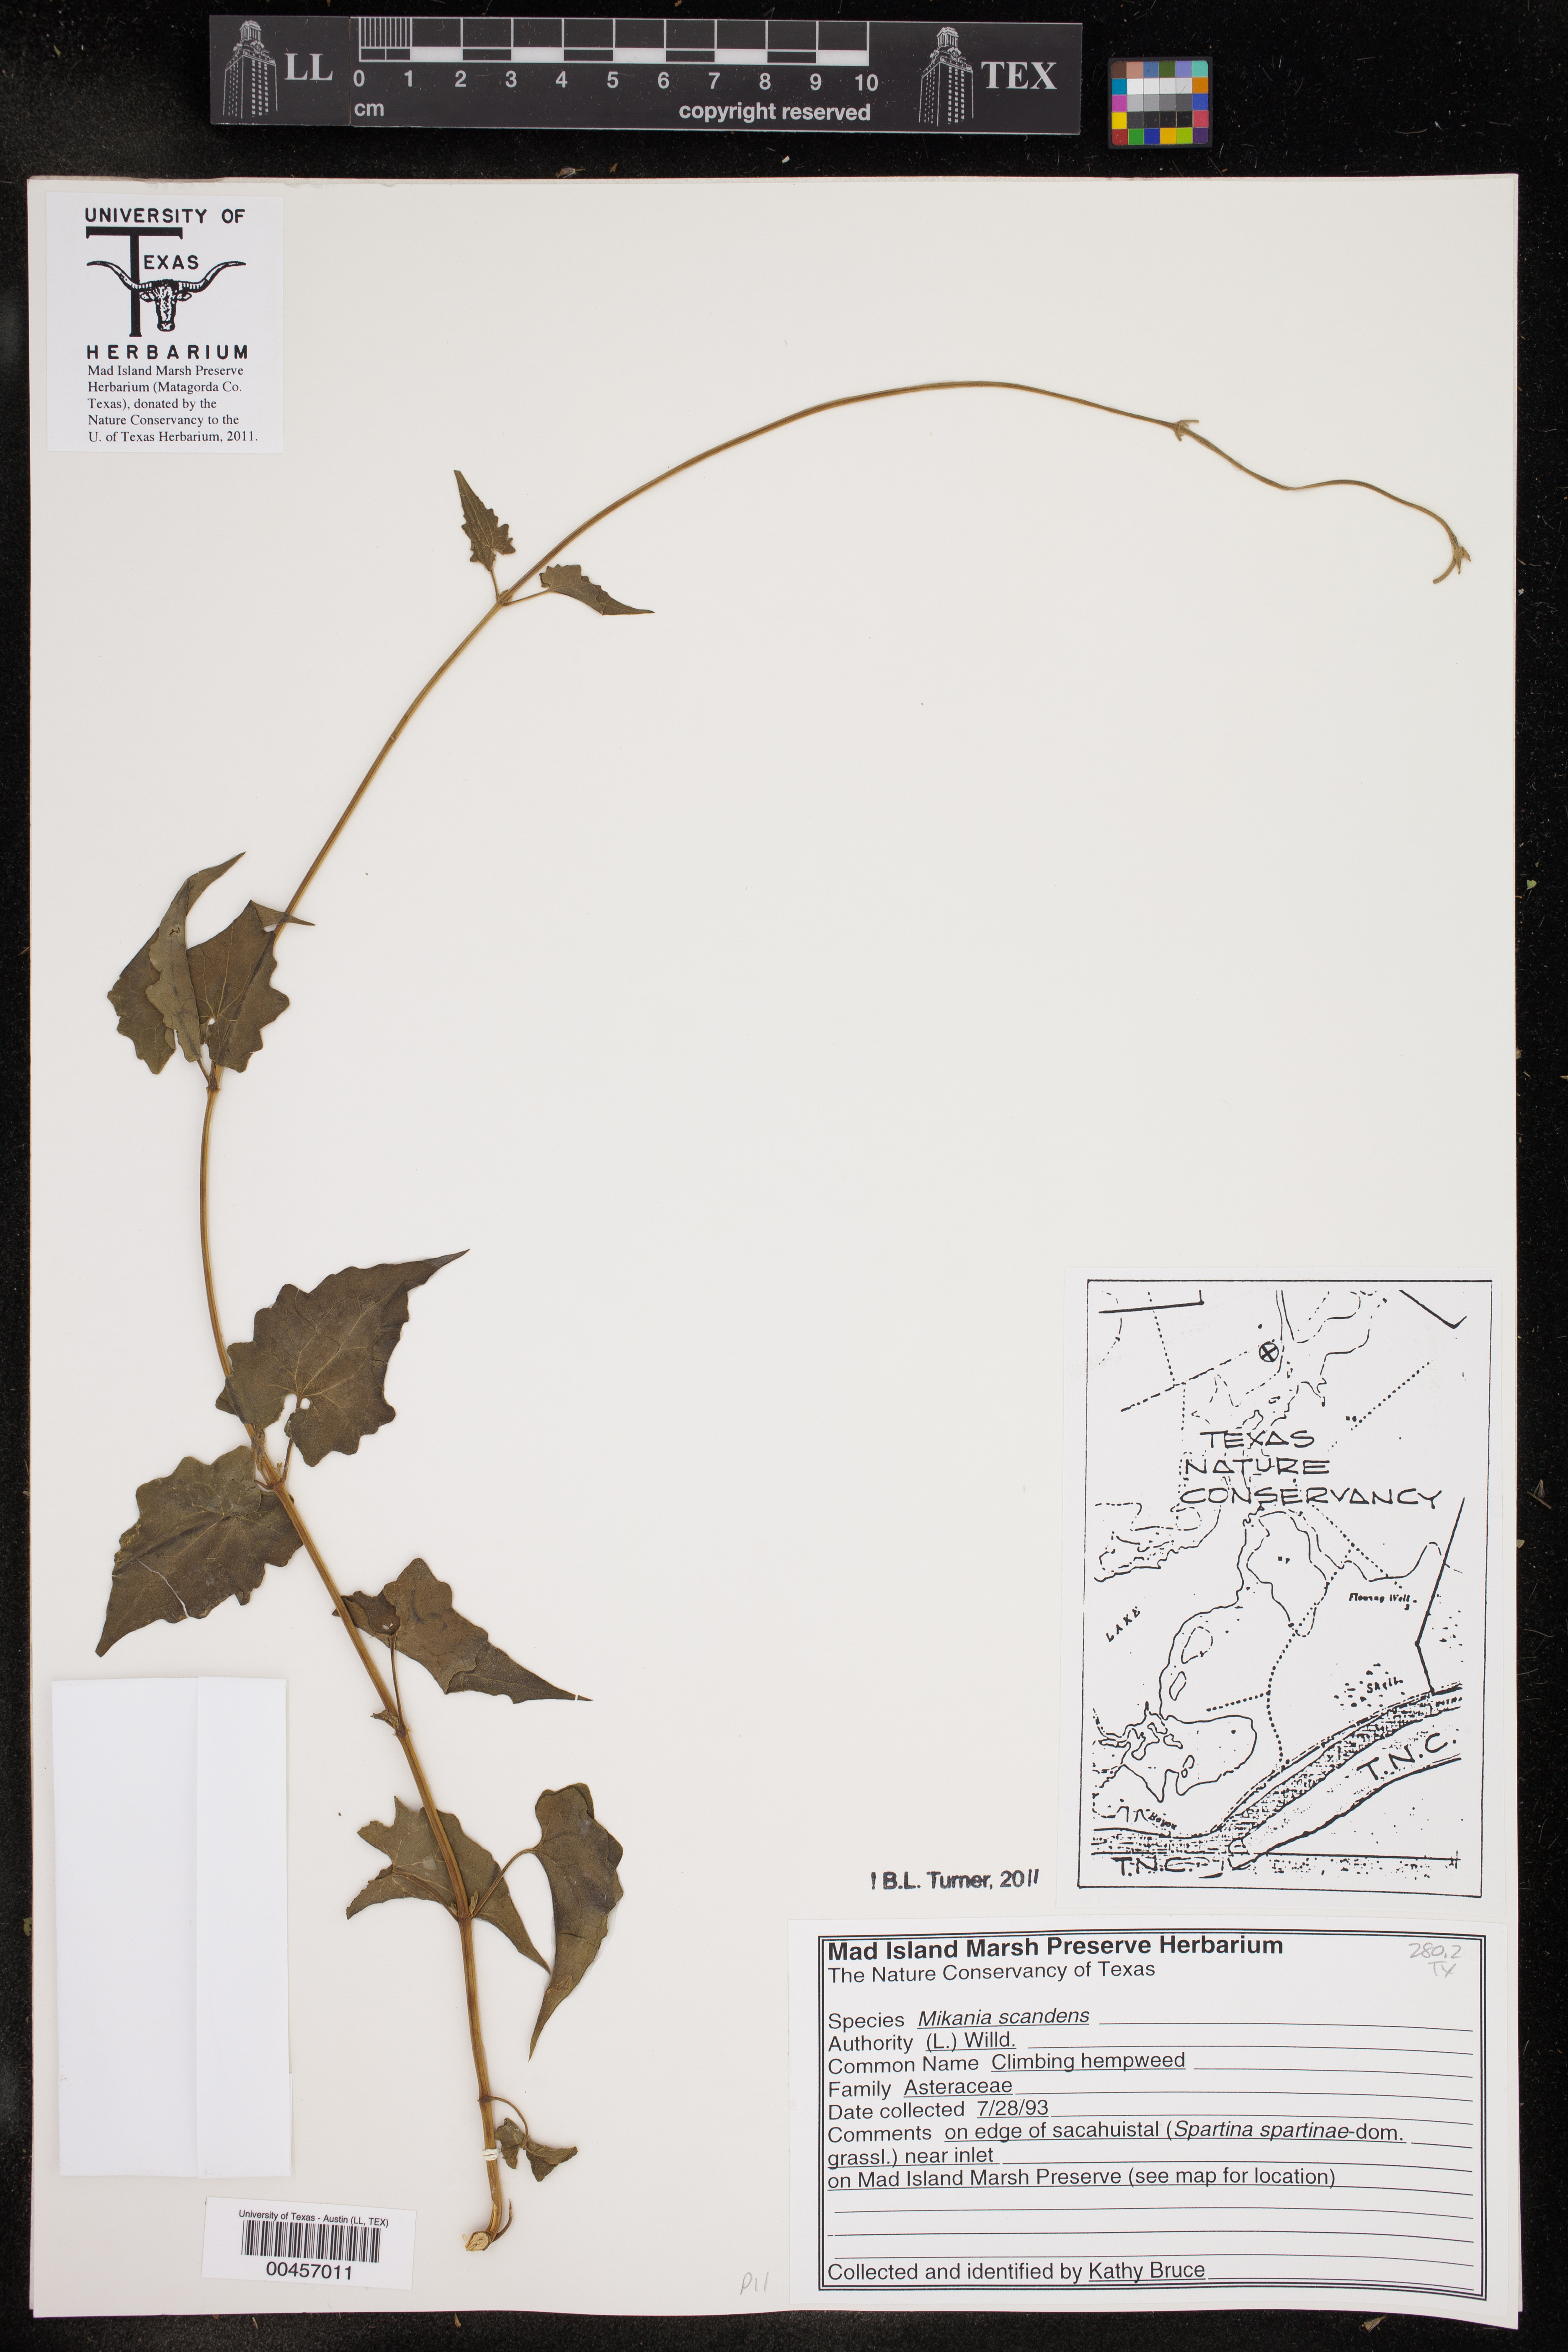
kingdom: Plantae
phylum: Tracheophyta
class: Magnoliopsida
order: Asterales
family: Asteraceae
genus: Mikania
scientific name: Mikania scandens
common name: Climbing hempvine
